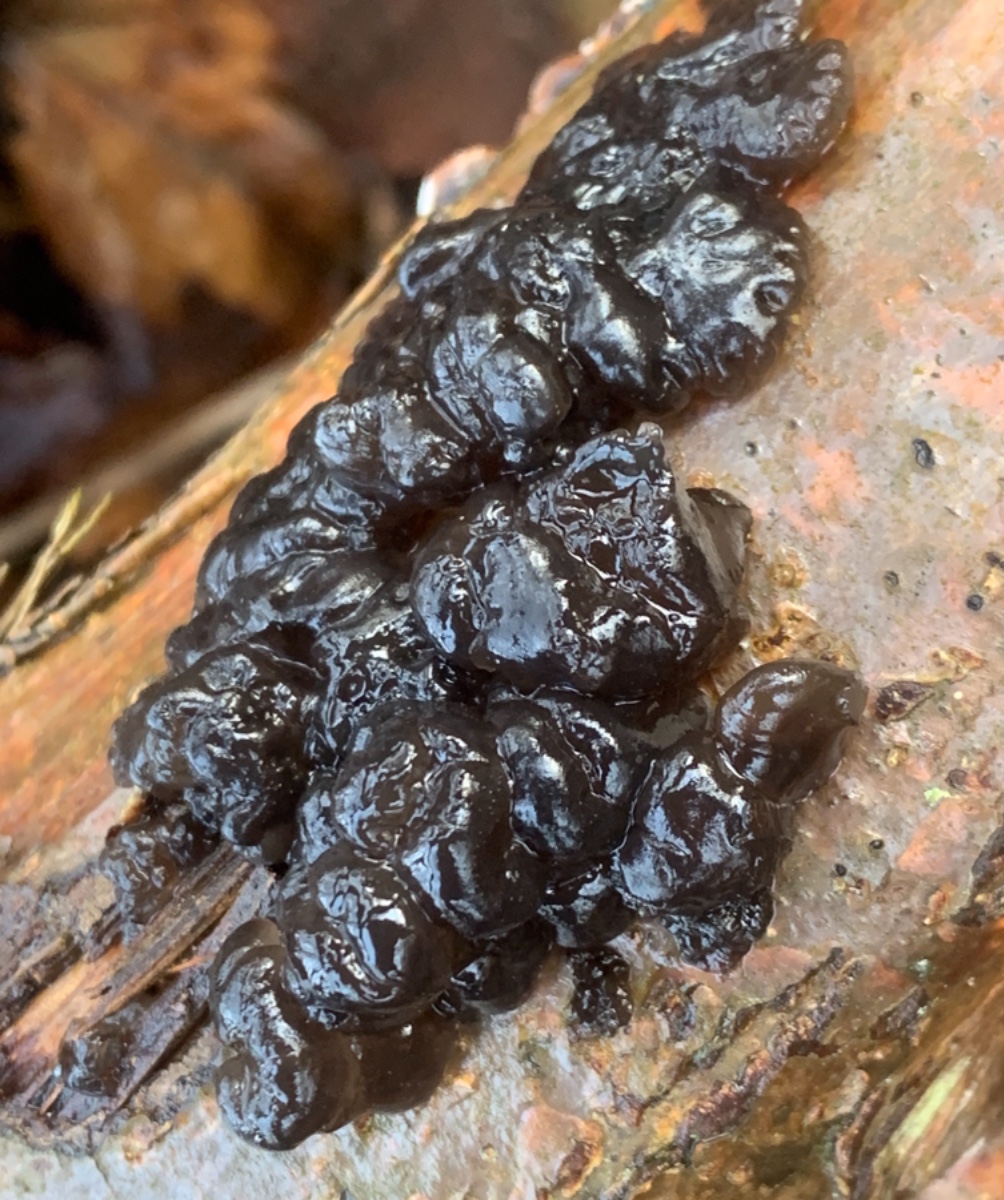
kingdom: Fungi
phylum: Basidiomycota
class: Agaricomycetes
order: Auriculariales
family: Auriculariaceae
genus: Exidia
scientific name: Exidia nigricans
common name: almindelig bævretop
